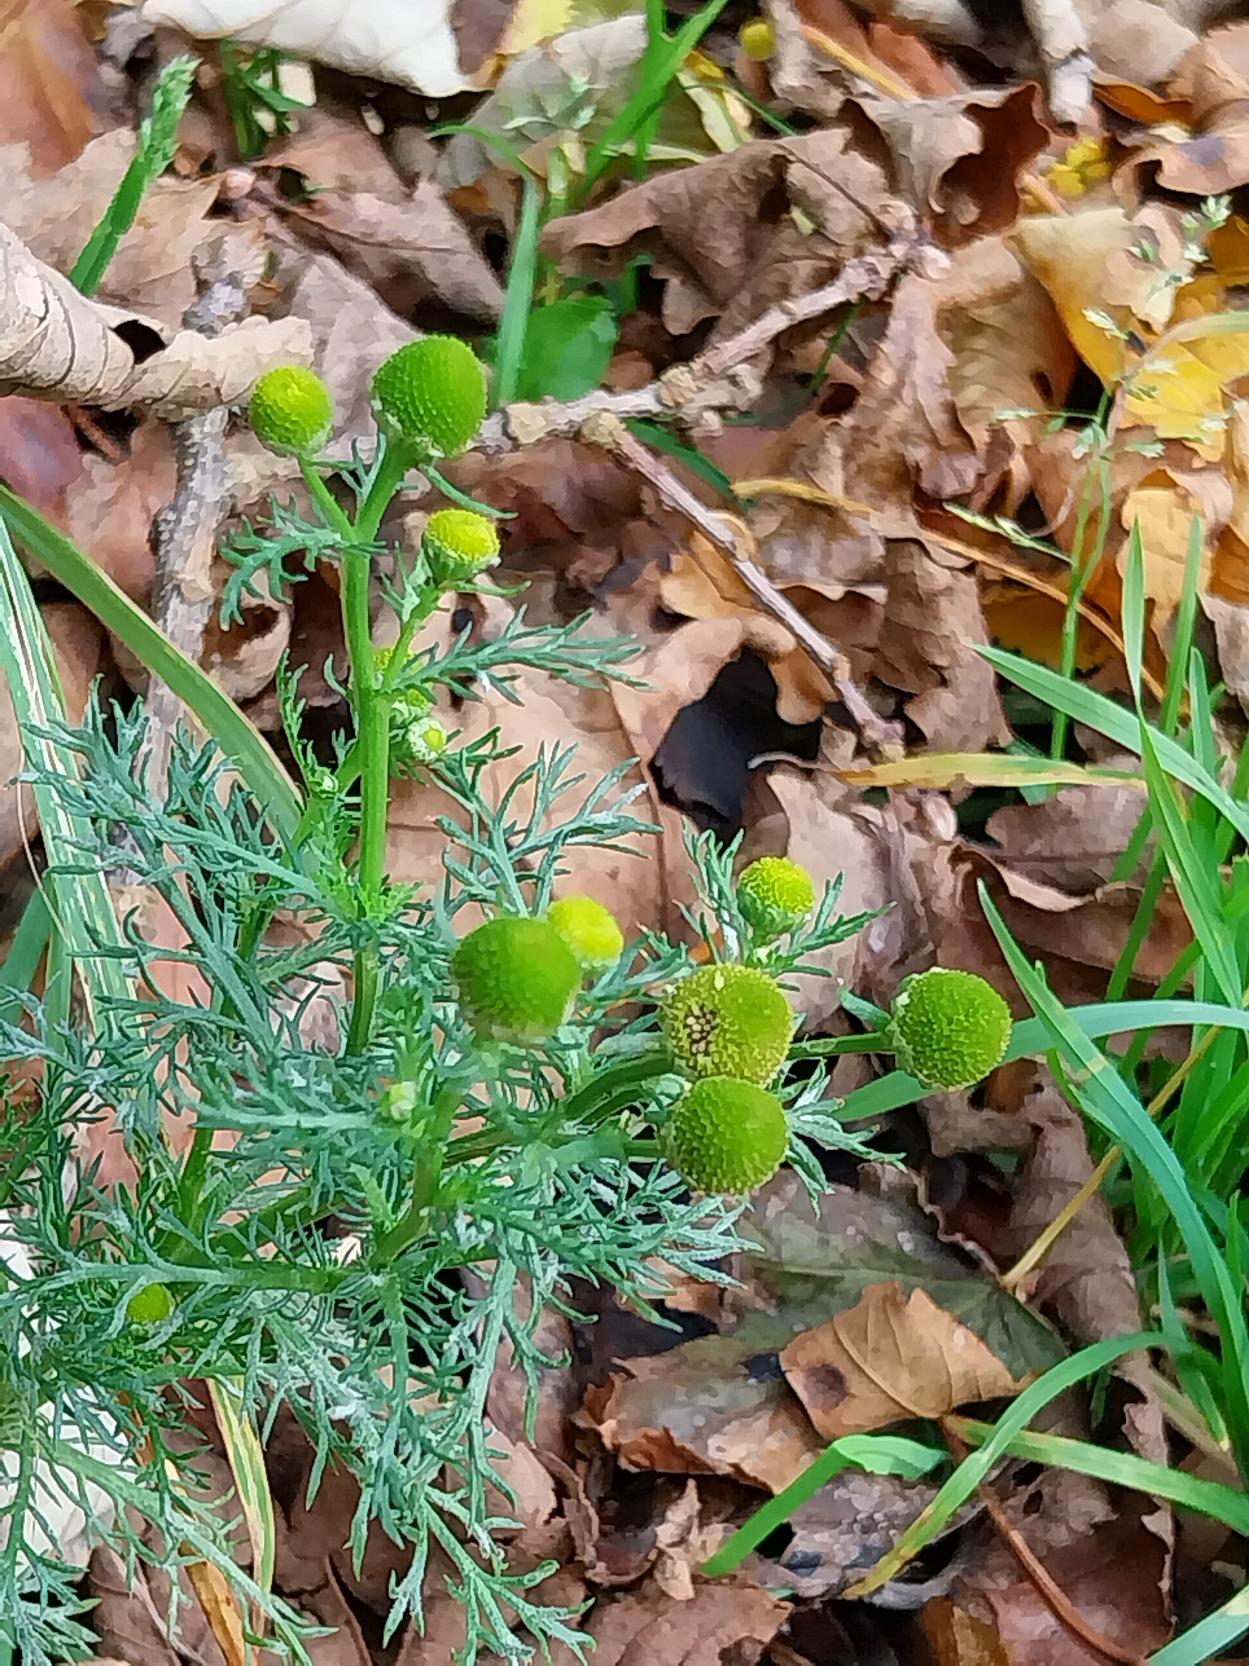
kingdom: Plantae
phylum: Tracheophyta
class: Magnoliopsida
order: Asterales
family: Asteraceae
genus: Matricaria
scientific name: Matricaria discoidea
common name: Skive-kamille
